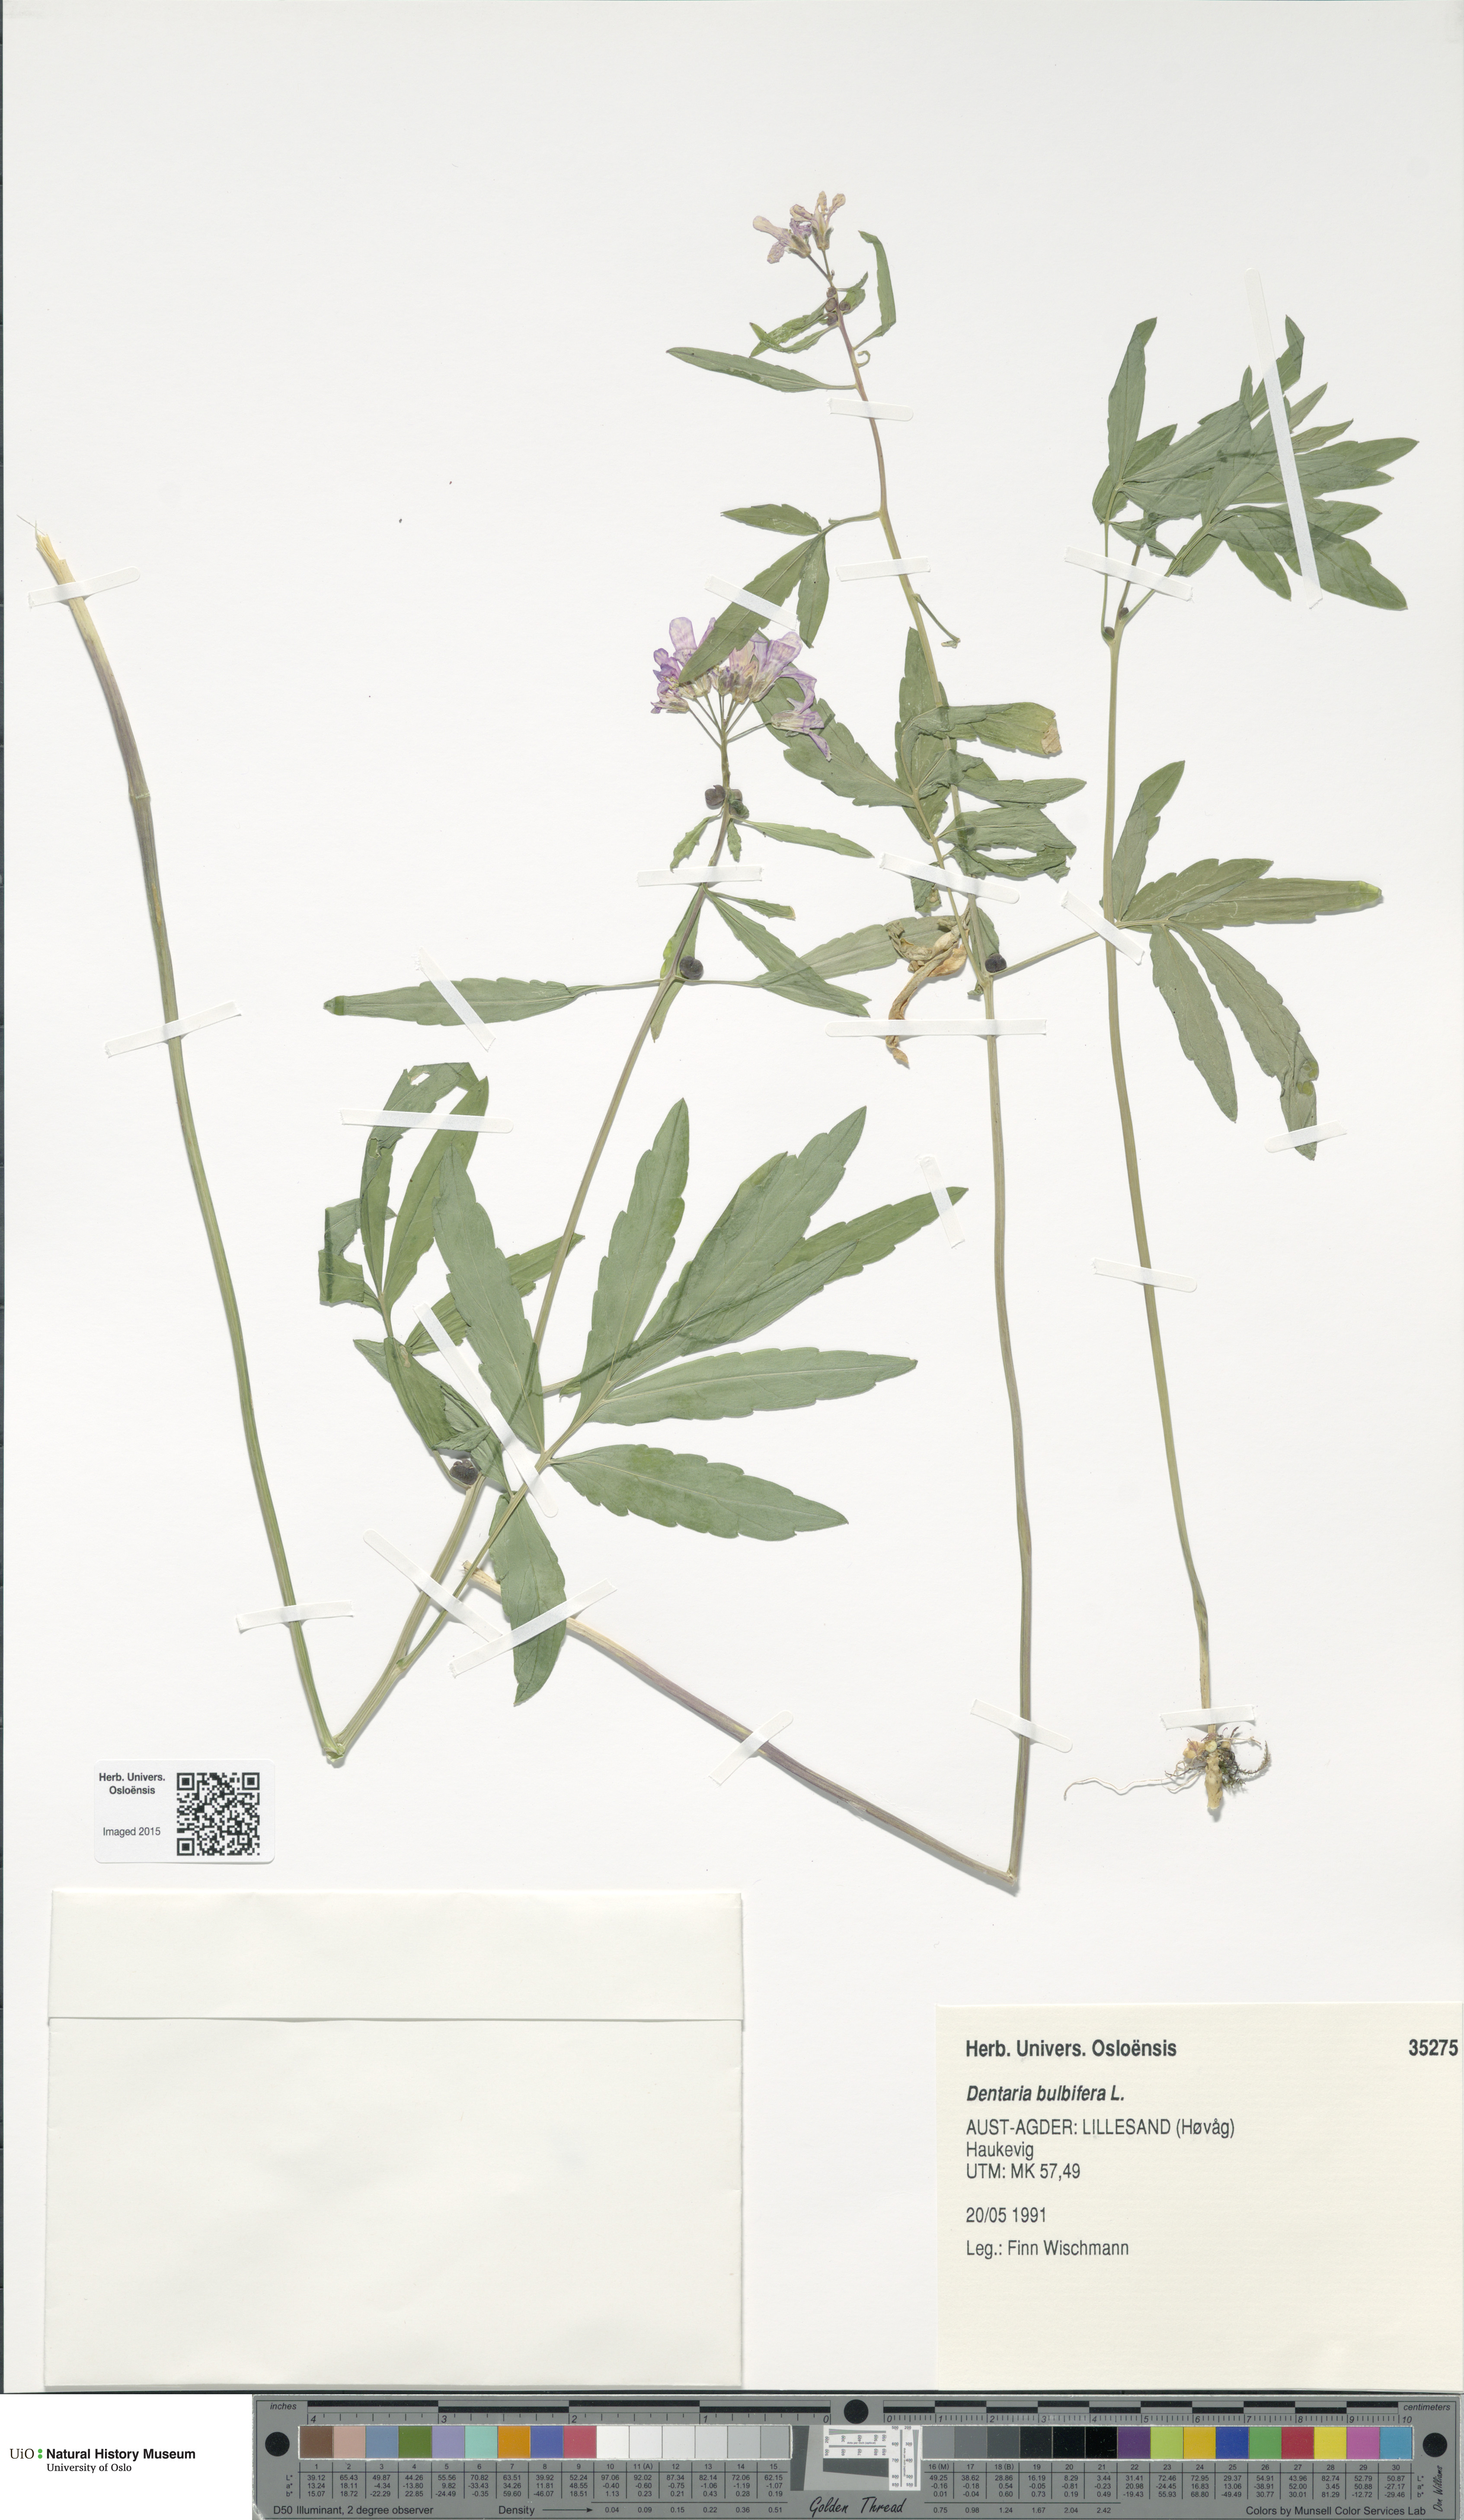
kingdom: Plantae
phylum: Tracheophyta
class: Magnoliopsida
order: Brassicales
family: Brassicaceae
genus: Cardamine
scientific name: Cardamine bulbifera
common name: Coralroot bittercress
